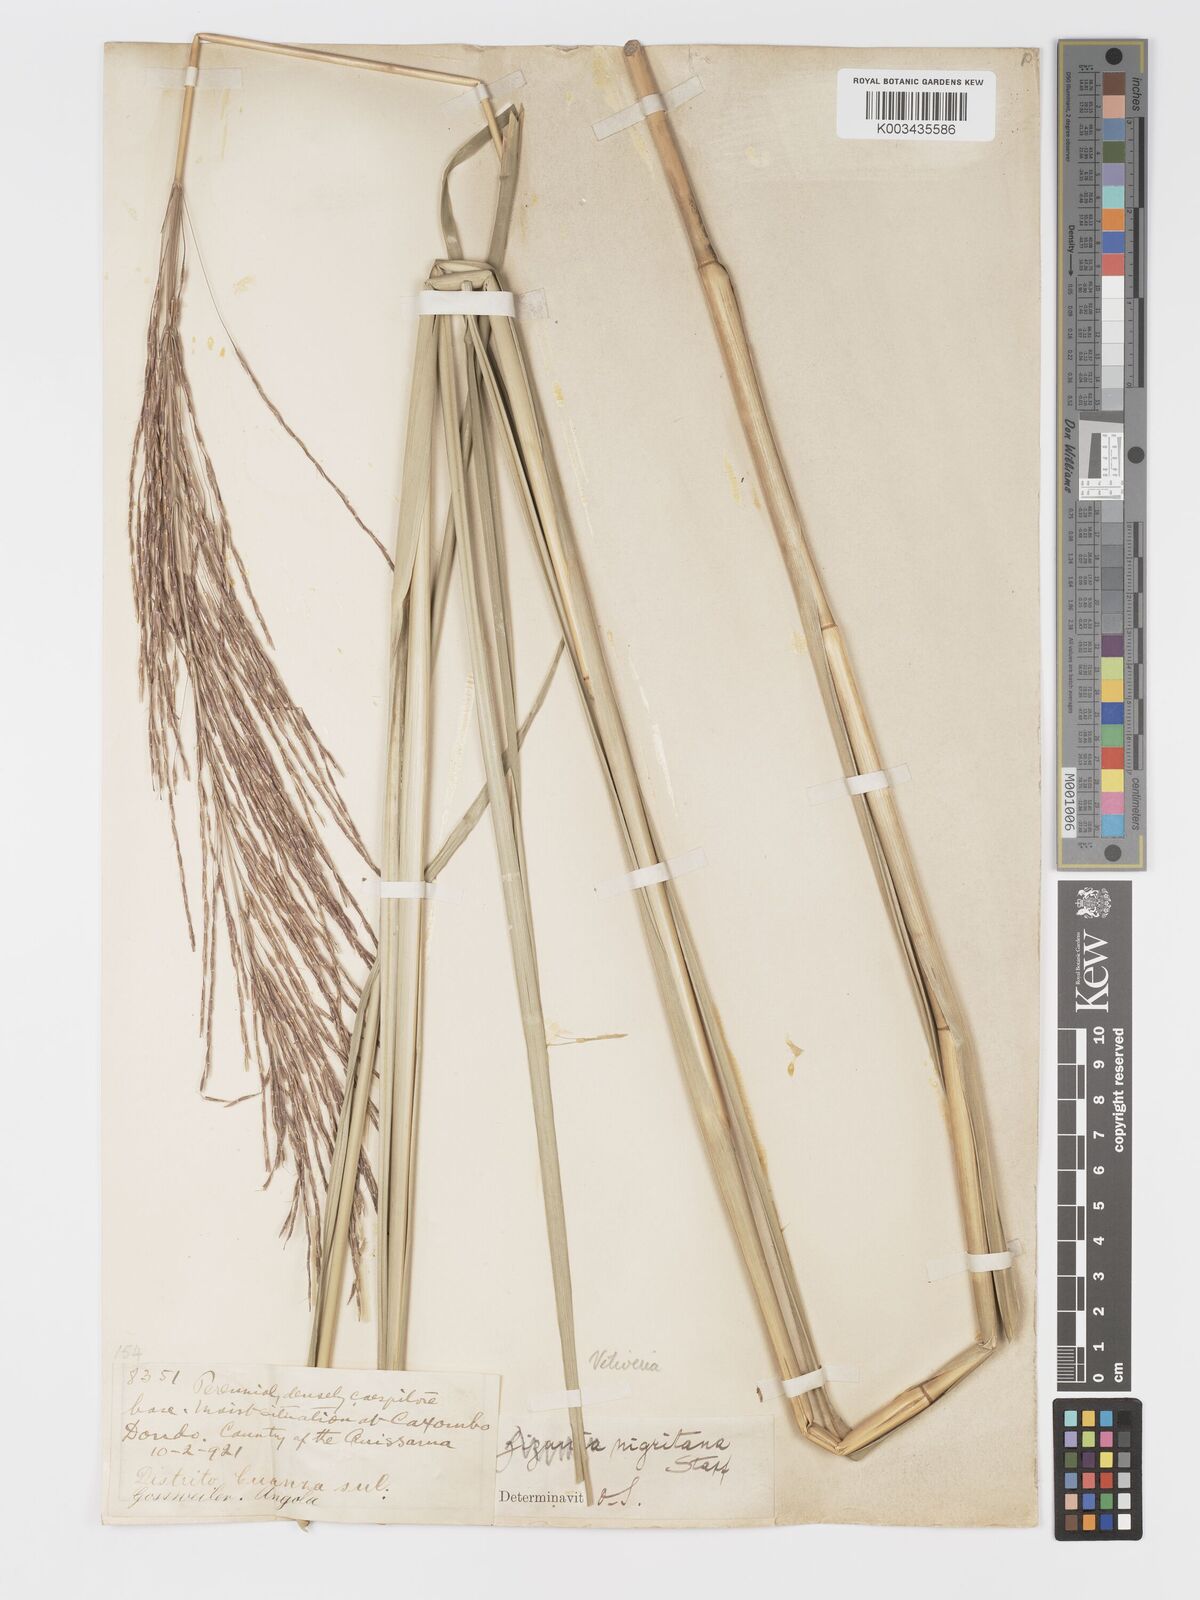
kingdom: Plantae
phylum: Tracheophyta
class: Liliopsida
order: Poales
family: Poaceae
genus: Chrysopogon
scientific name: Chrysopogon nigritanus
